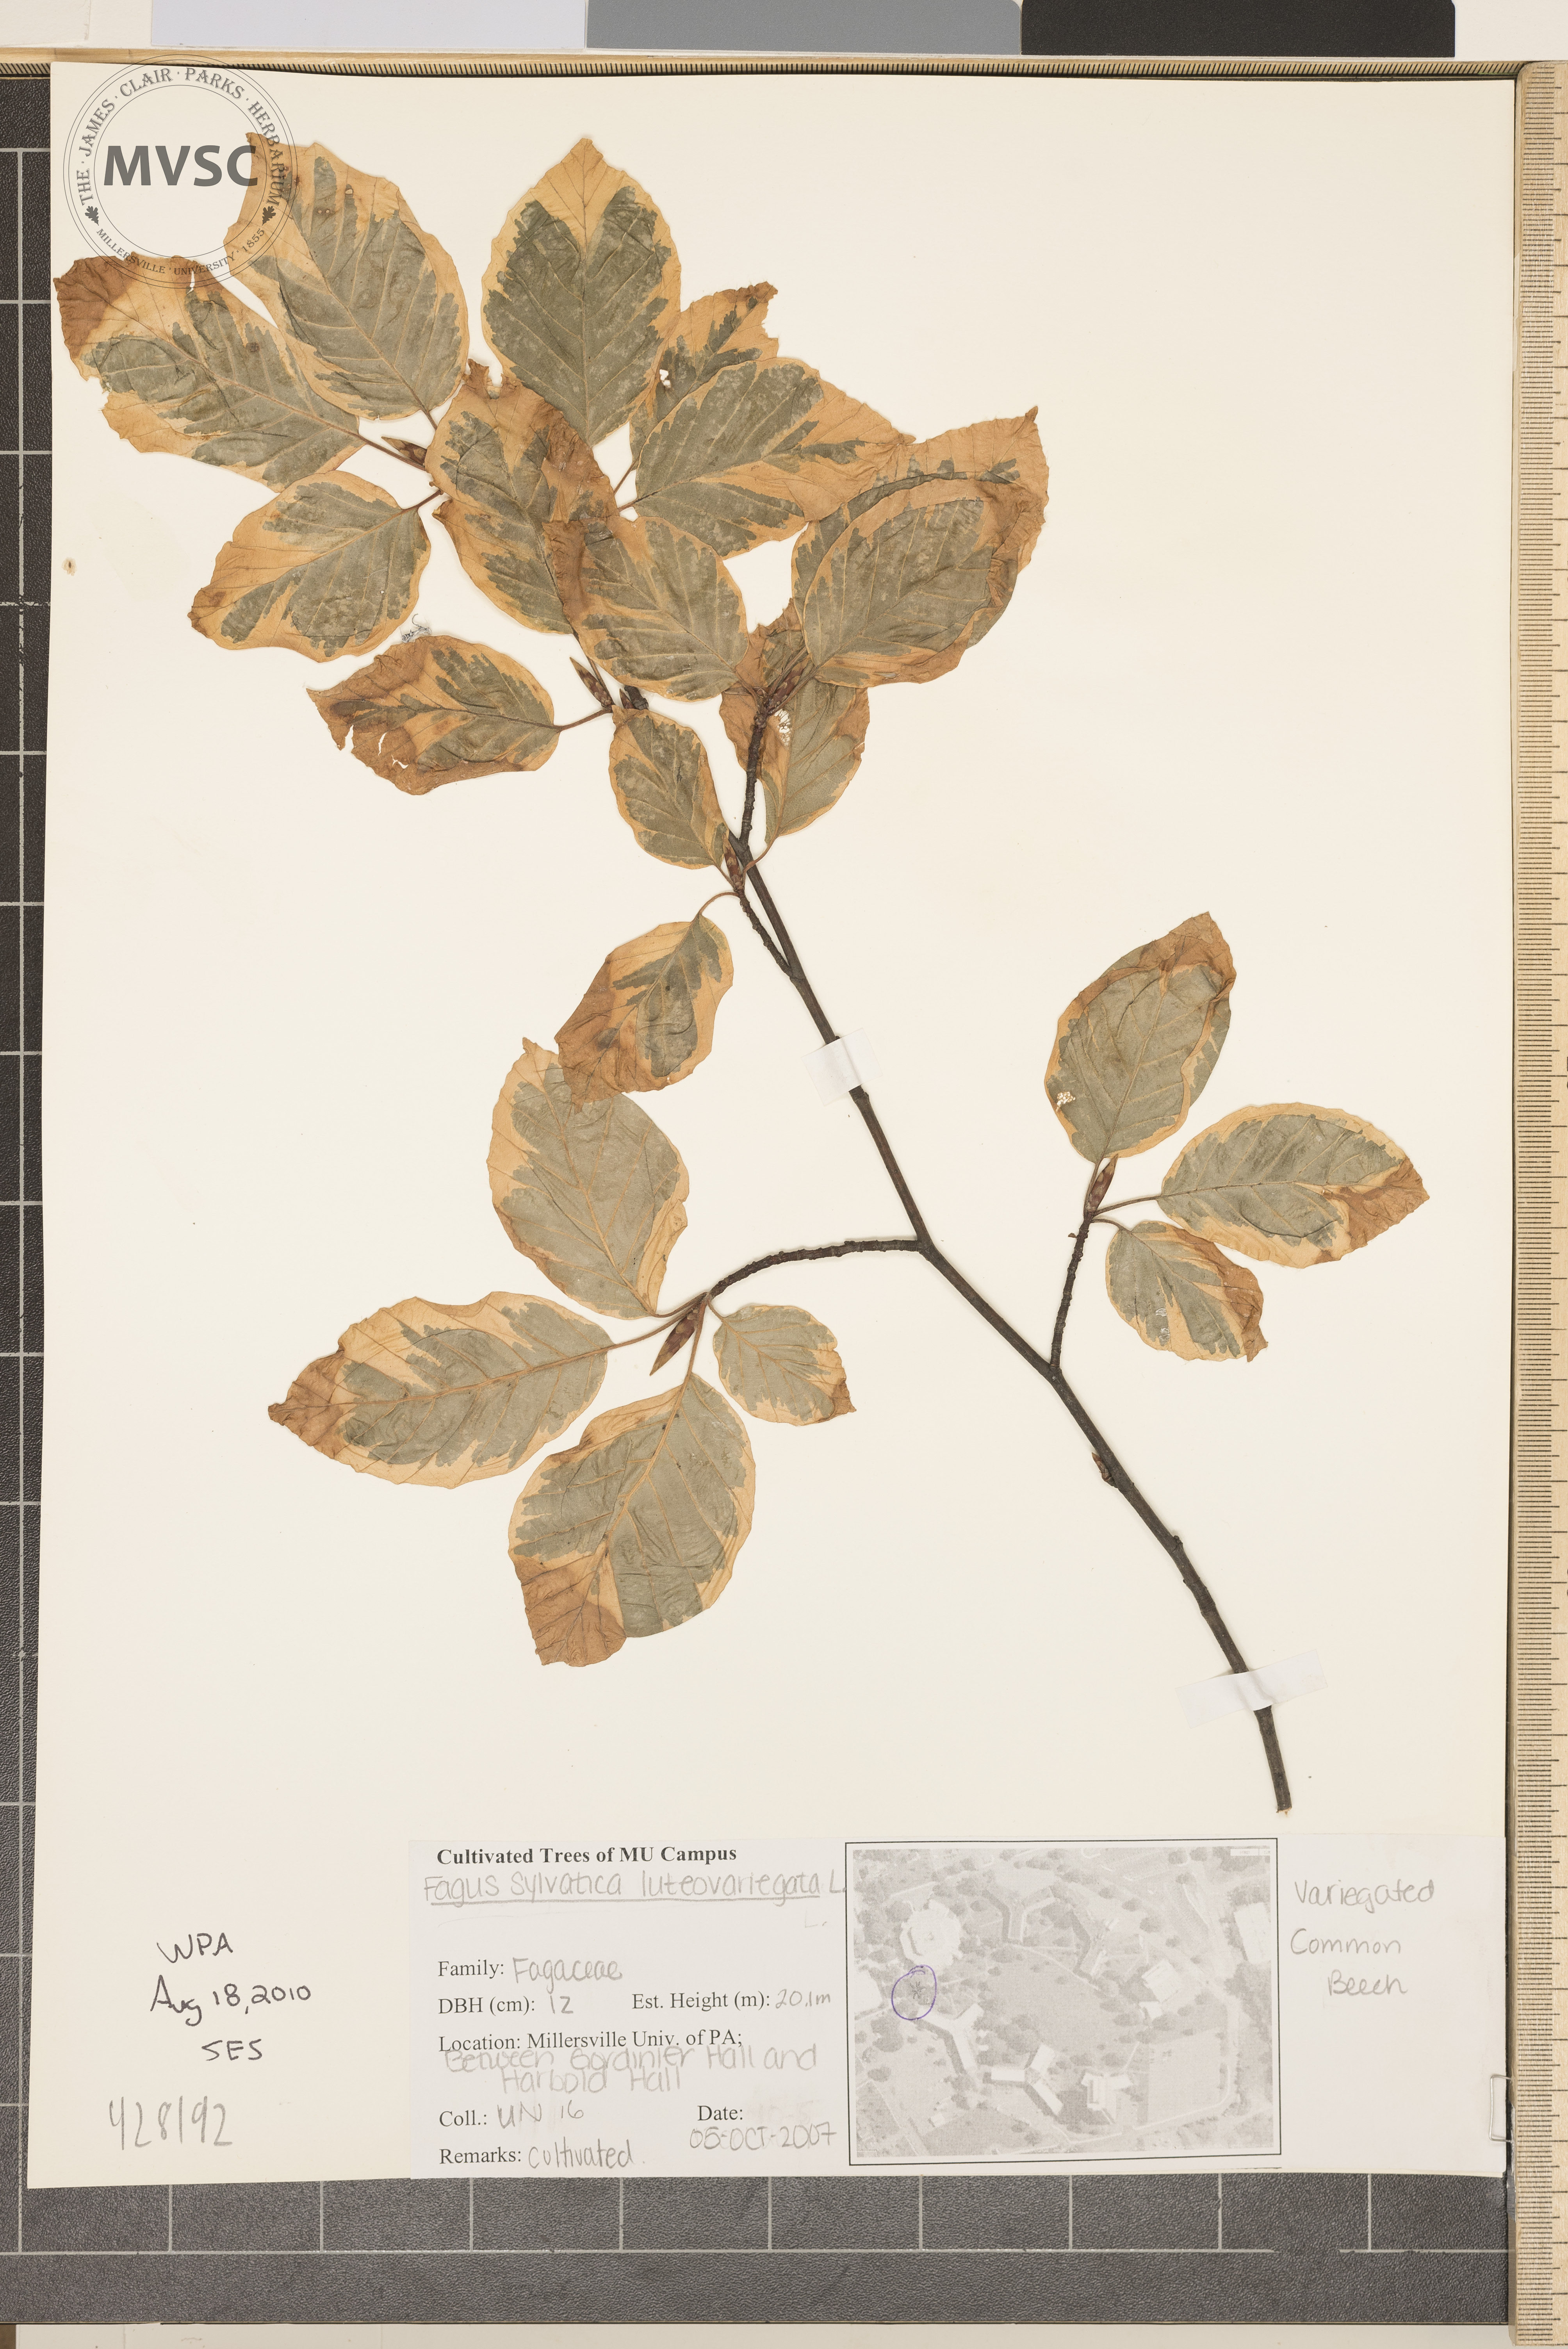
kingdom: Plantae
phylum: Tracheophyta
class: Magnoliopsida
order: Fagales
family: Fagaceae
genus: Fagus
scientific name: Fagus sylvatica
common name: European Beech
